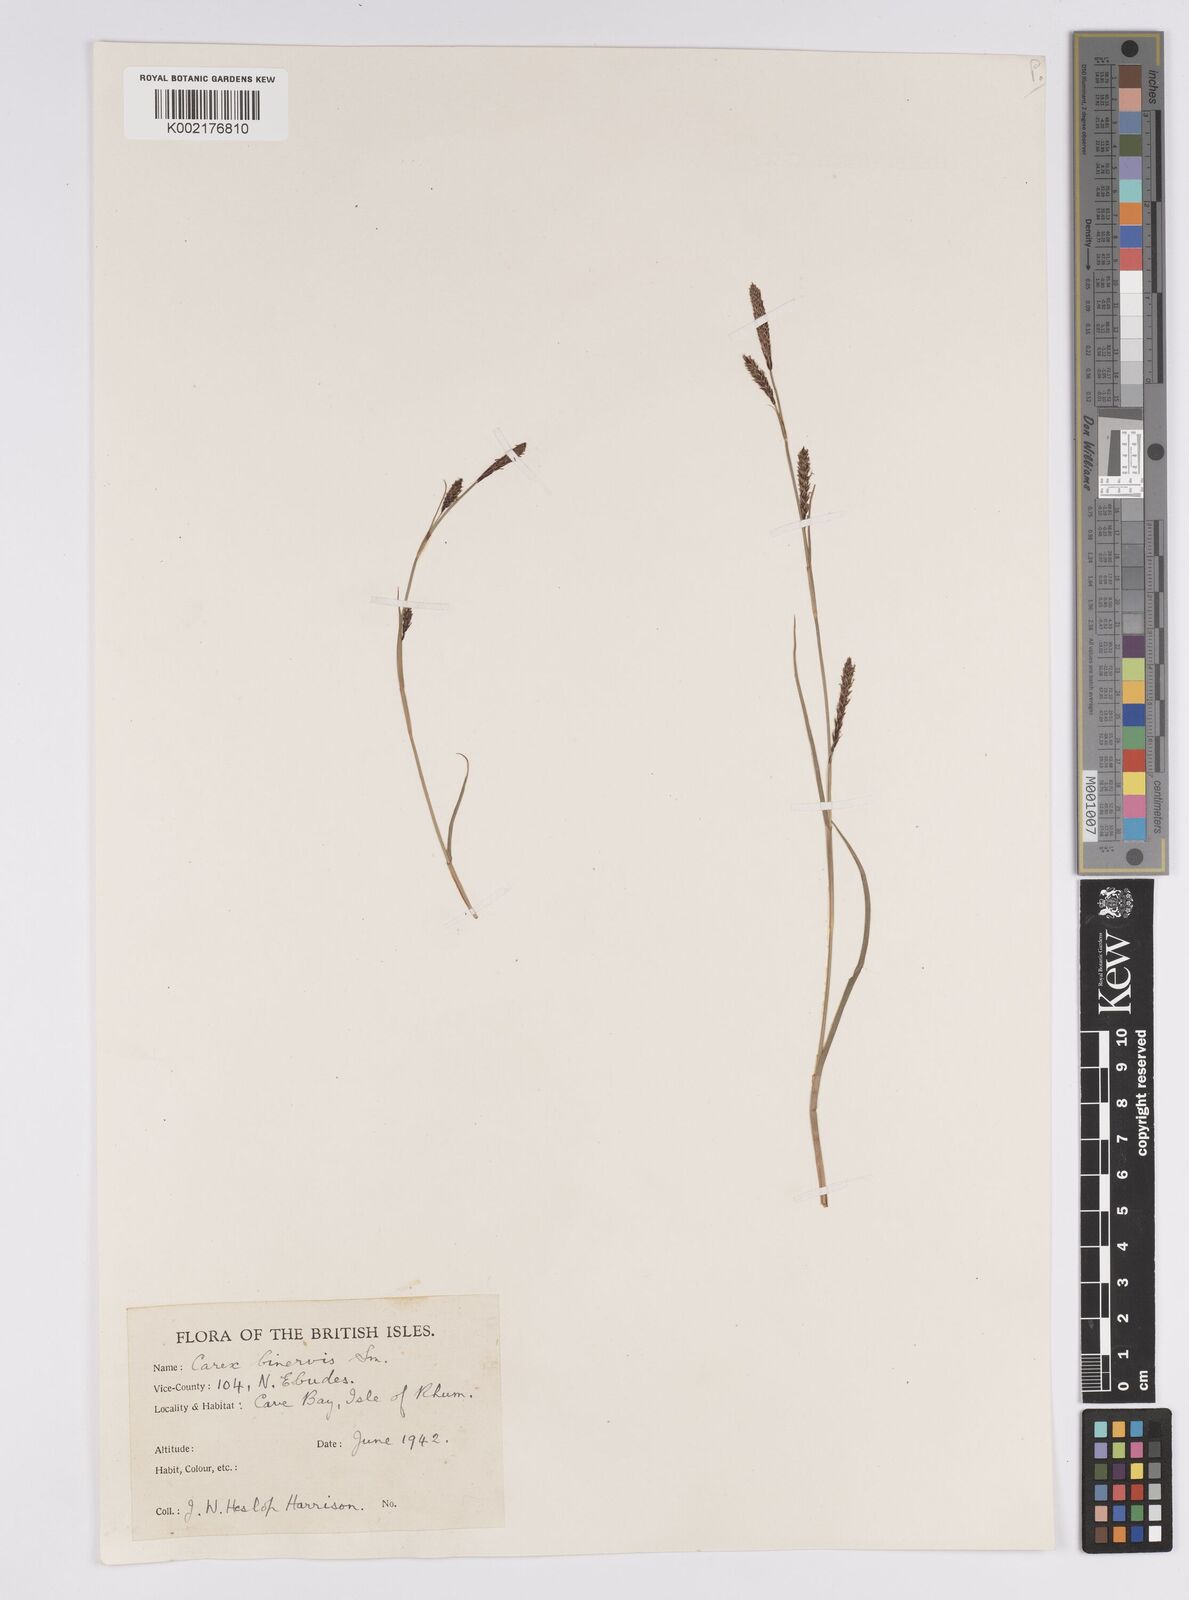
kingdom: Plantae
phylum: Tracheophyta
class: Liliopsida
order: Poales
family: Cyperaceae
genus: Carex
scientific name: Carex binervis
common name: Green-ribbed sedge
